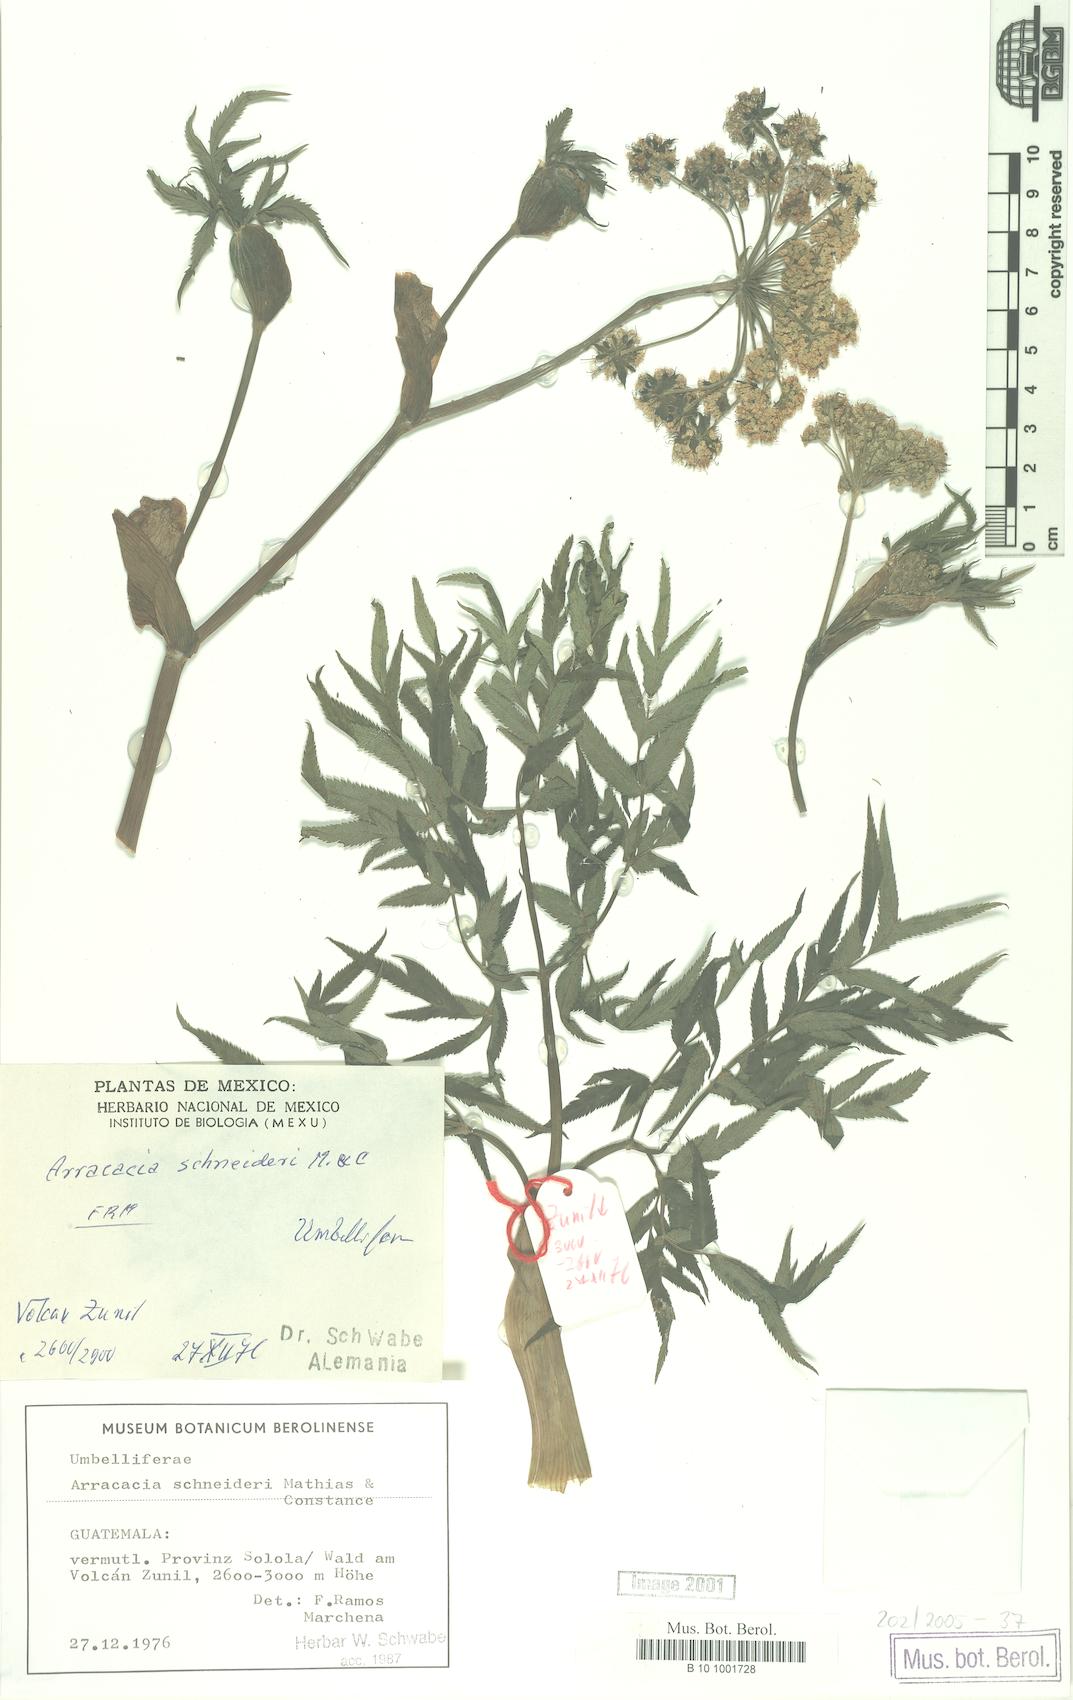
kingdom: Plantae
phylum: Tracheophyta
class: Magnoliopsida
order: Apiales
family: Apiaceae
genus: Arracacia
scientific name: Arracacia schneideri
